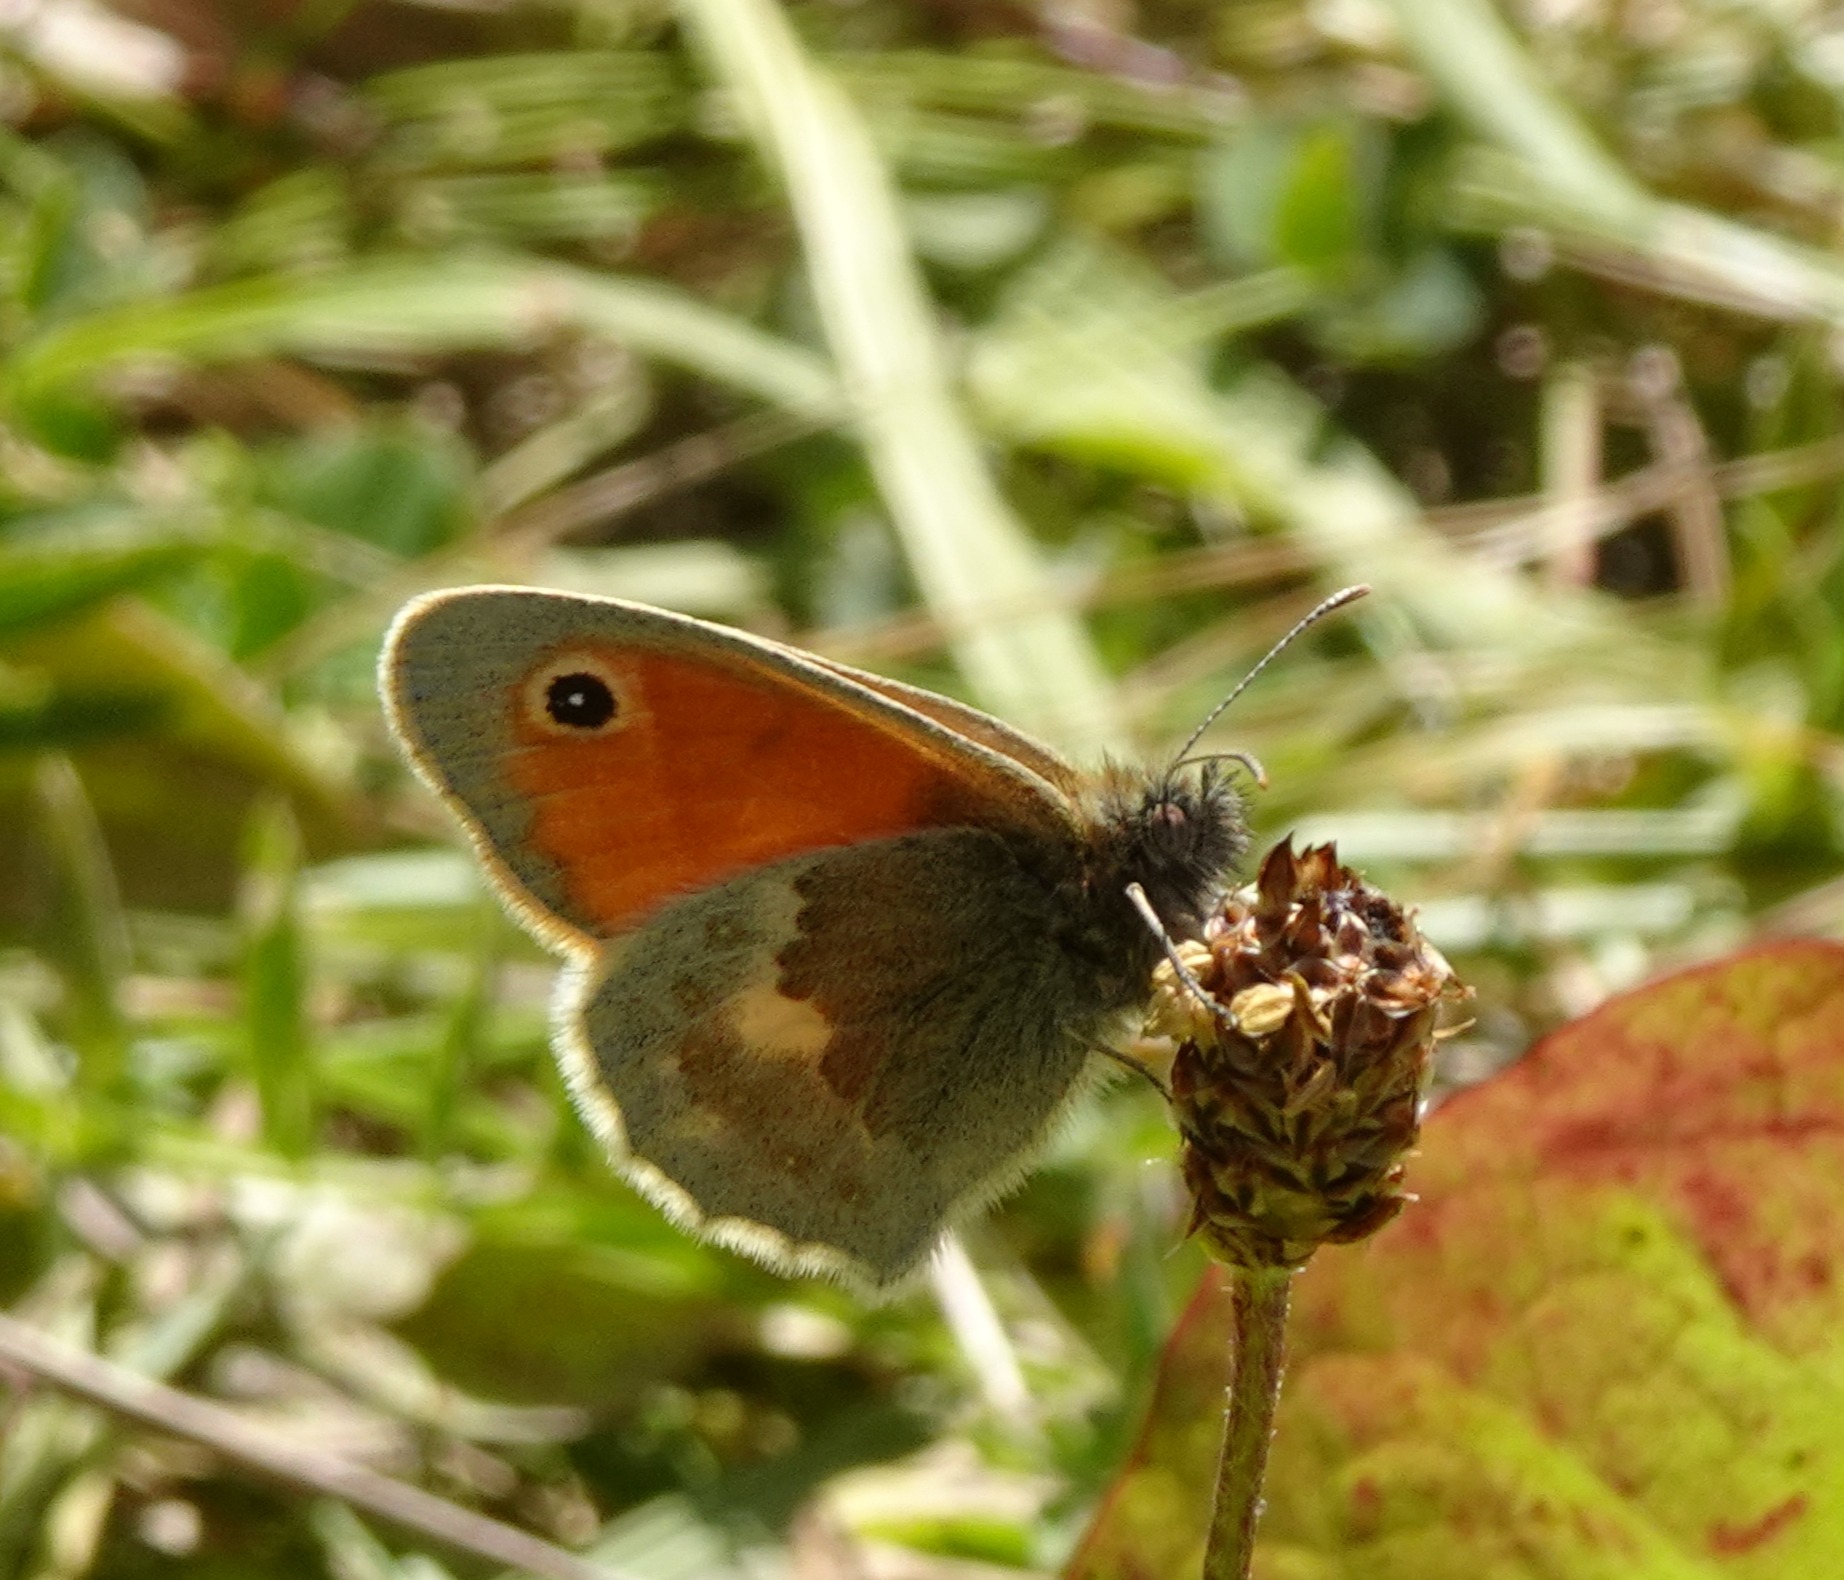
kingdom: Animalia
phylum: Arthropoda
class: Insecta
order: Lepidoptera
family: Nymphalidae
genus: Coenonympha
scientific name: Coenonympha pamphilus
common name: Okkergul randøje
